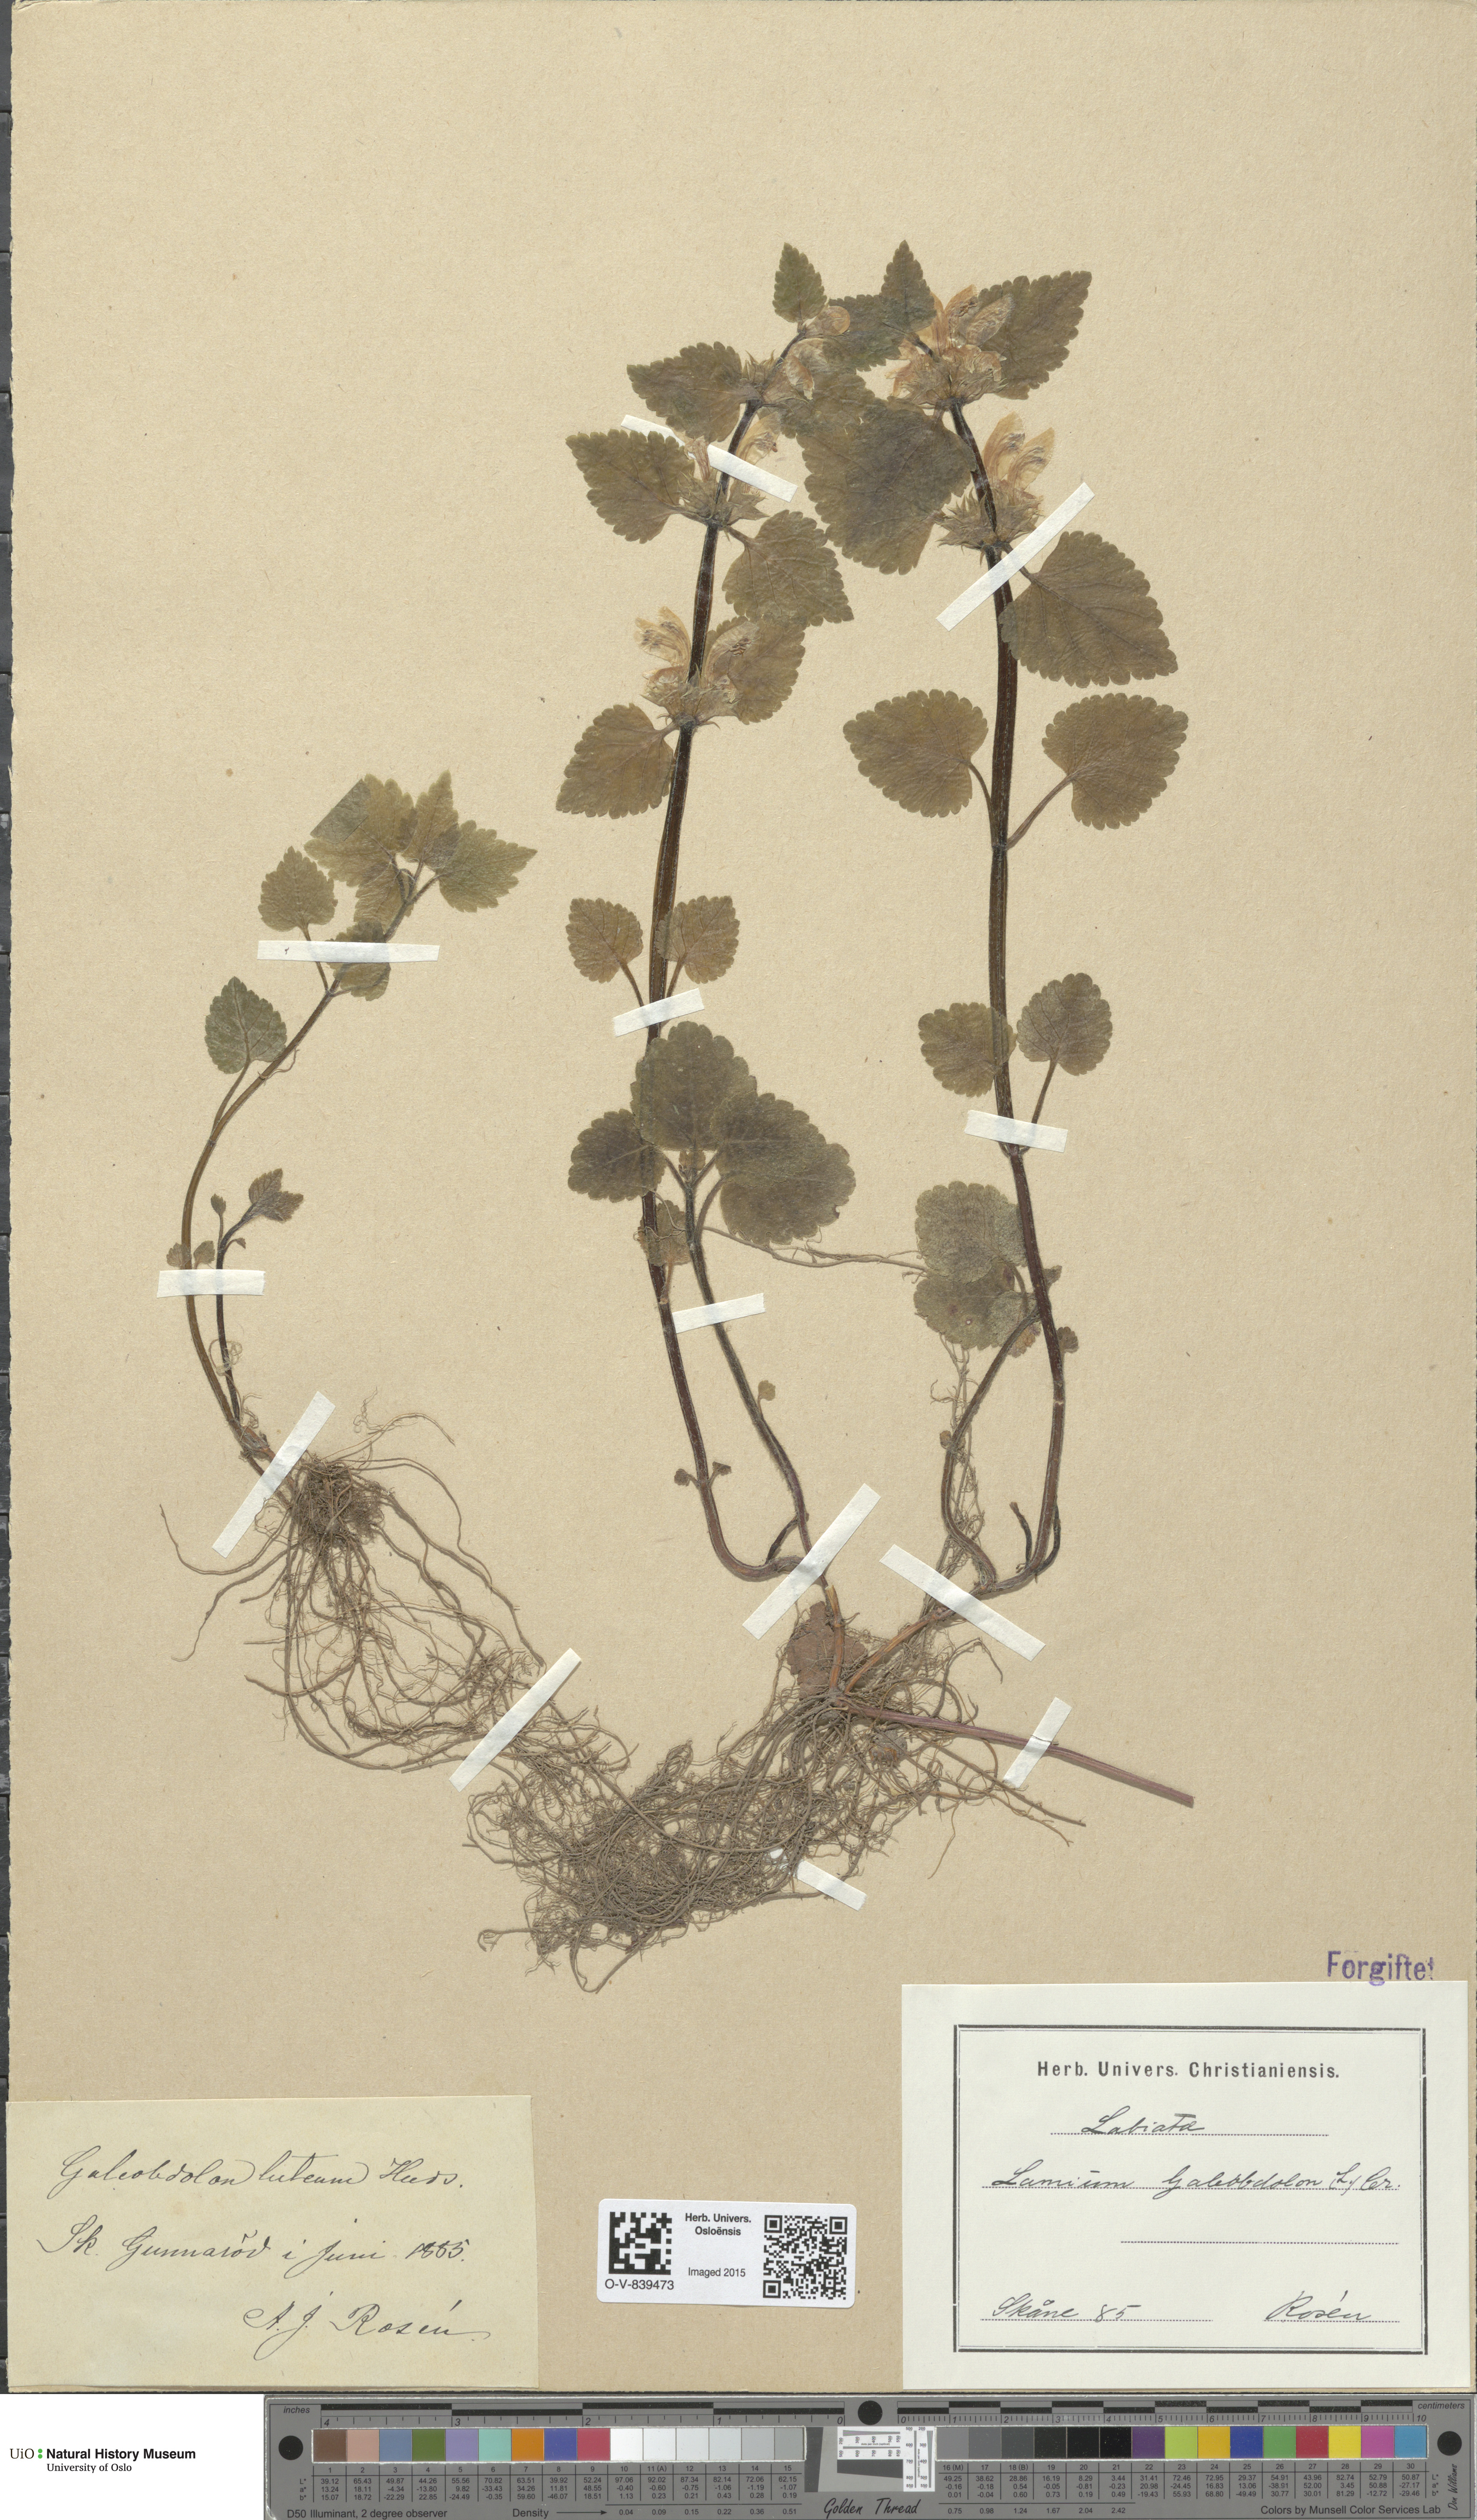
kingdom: Plantae
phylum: Tracheophyta
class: Magnoliopsida
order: Lamiales
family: Lamiaceae
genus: Lamium
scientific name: Lamium galeobdolon
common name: Yellow archangel
